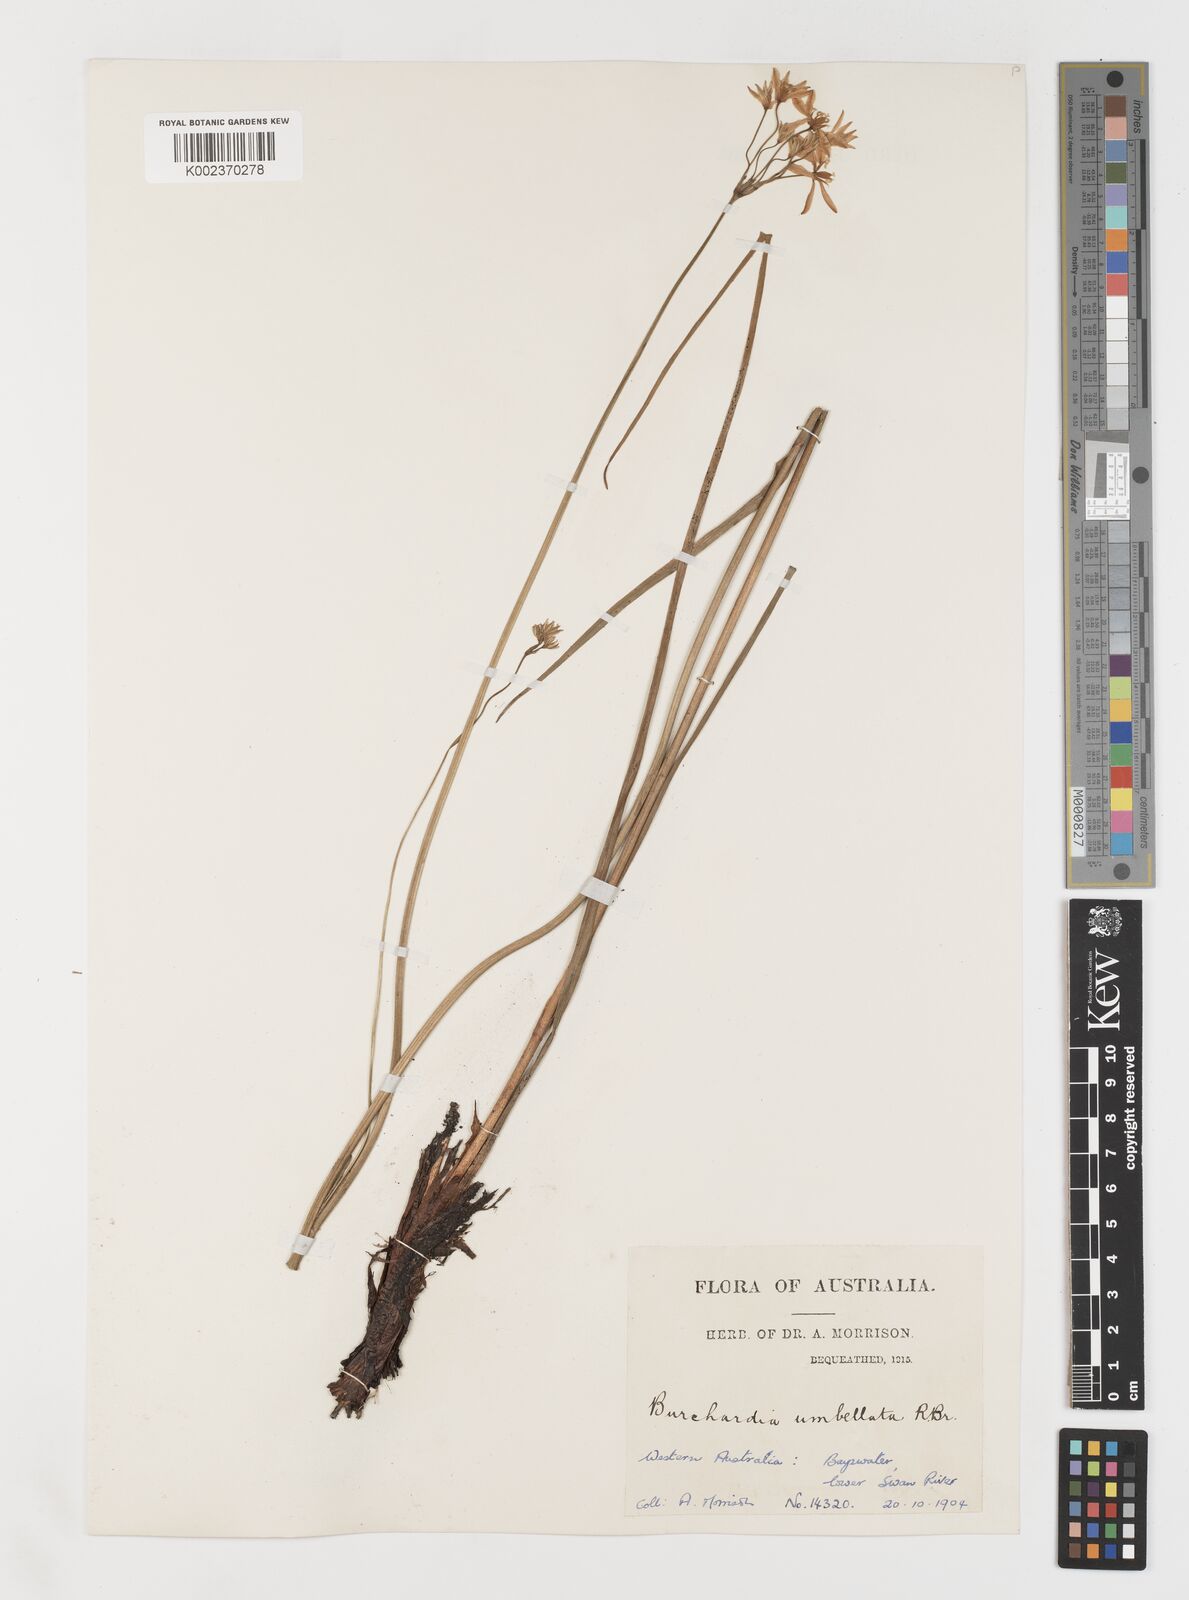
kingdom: Plantae
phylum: Tracheophyta
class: Liliopsida
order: Liliales
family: Colchicaceae
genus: Burchardia
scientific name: Burchardia umbellata
